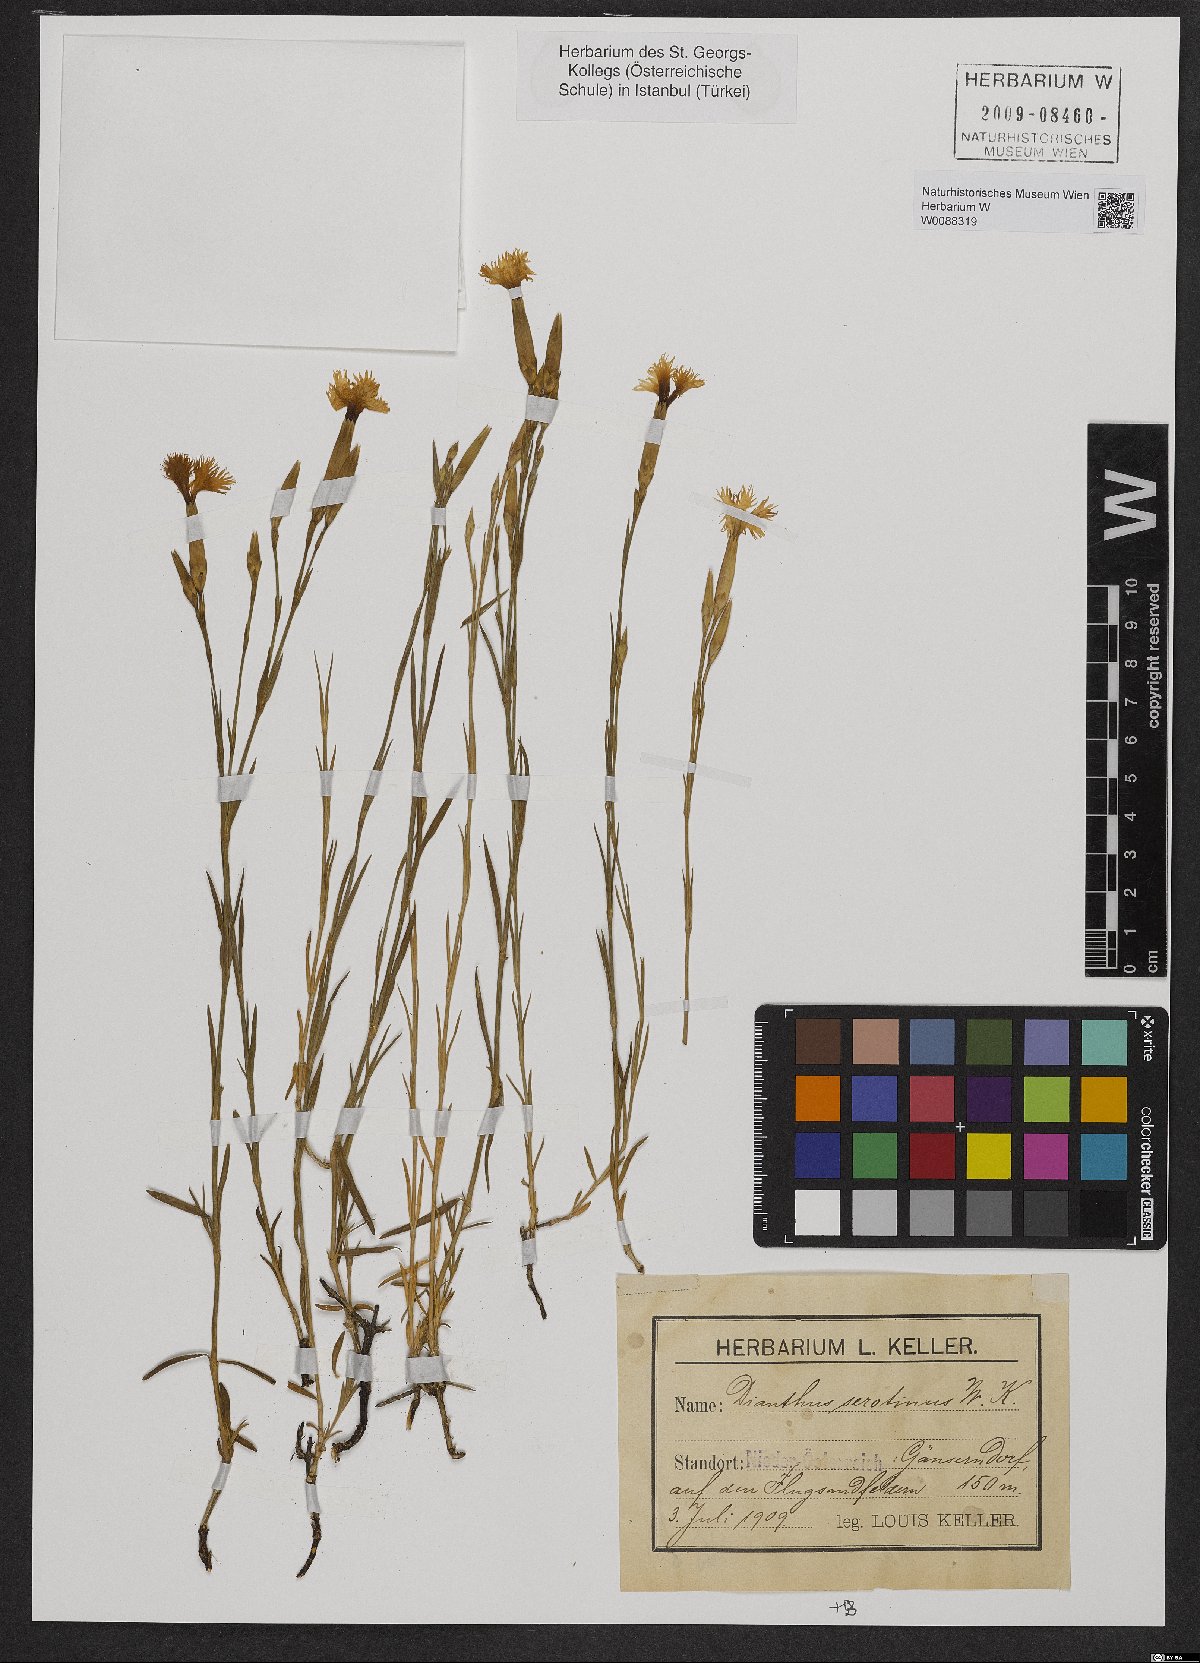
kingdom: Plantae
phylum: Tracheophyta
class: Magnoliopsida
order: Caryophyllales
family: Caryophyllaceae
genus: Dianthus
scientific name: Dianthus serotinus
